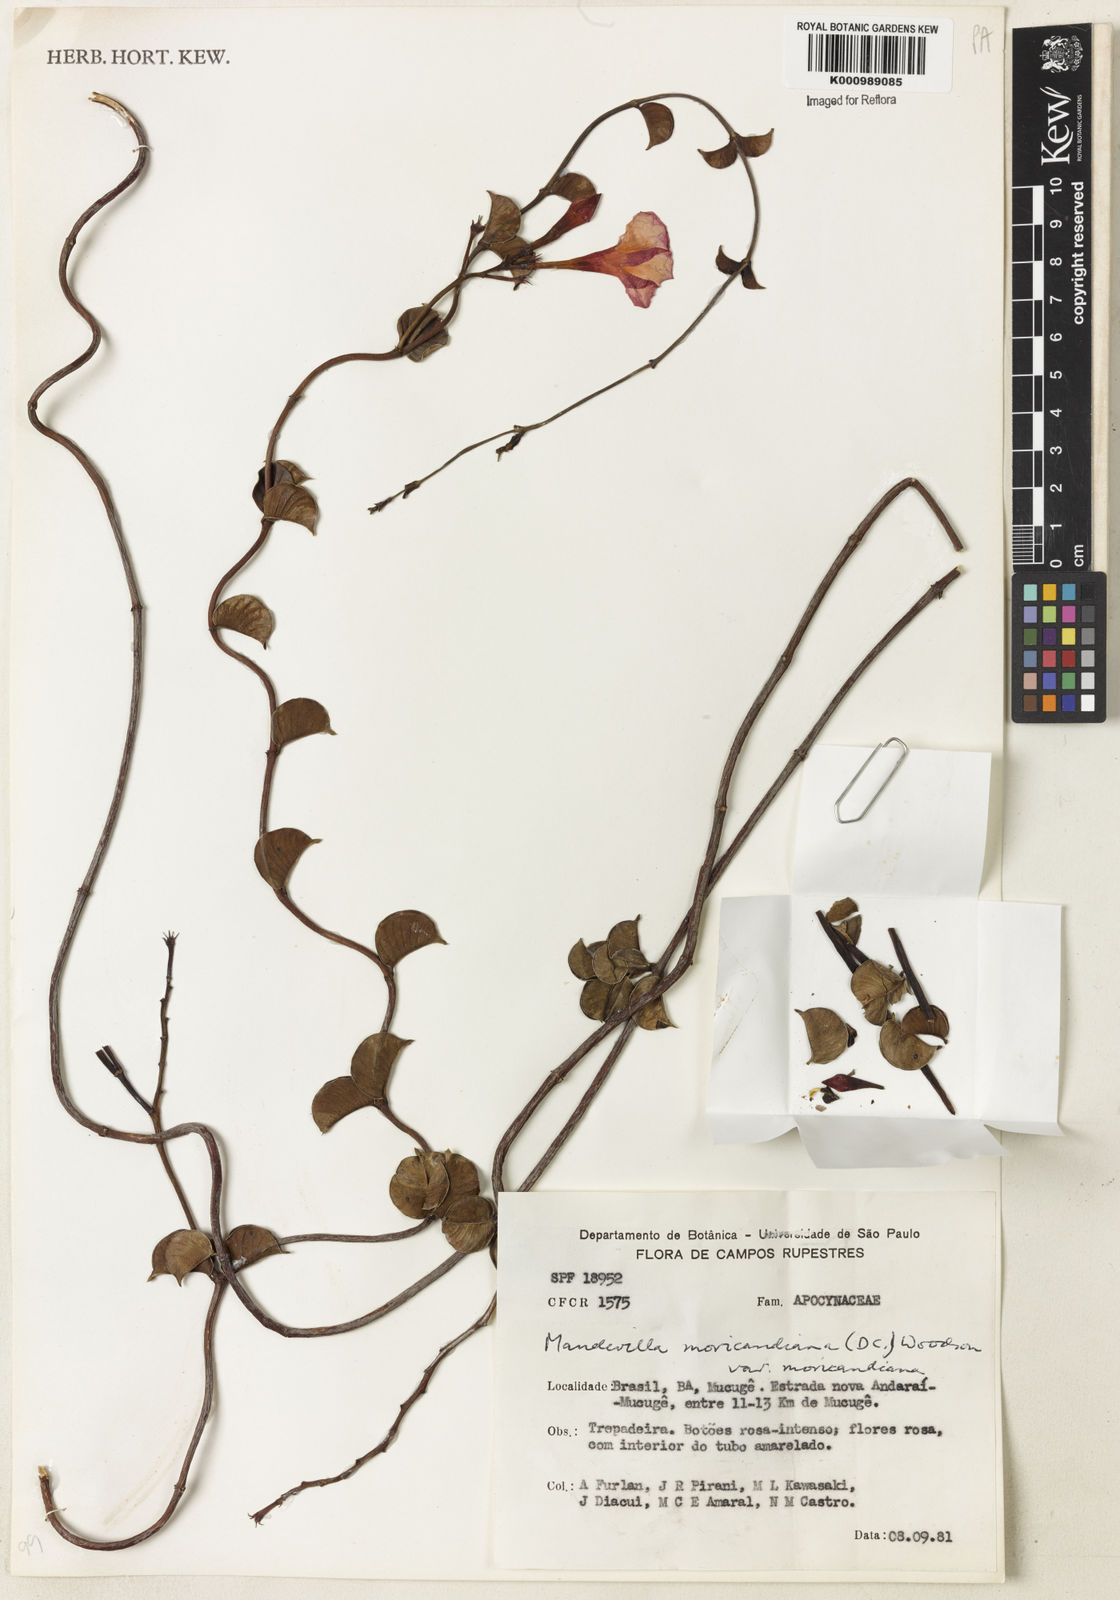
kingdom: Plantae
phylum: Tracheophyta
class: Magnoliopsida
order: Gentianales
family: Apocynaceae
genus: Mandevilla
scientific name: Mandevilla bahiensis
